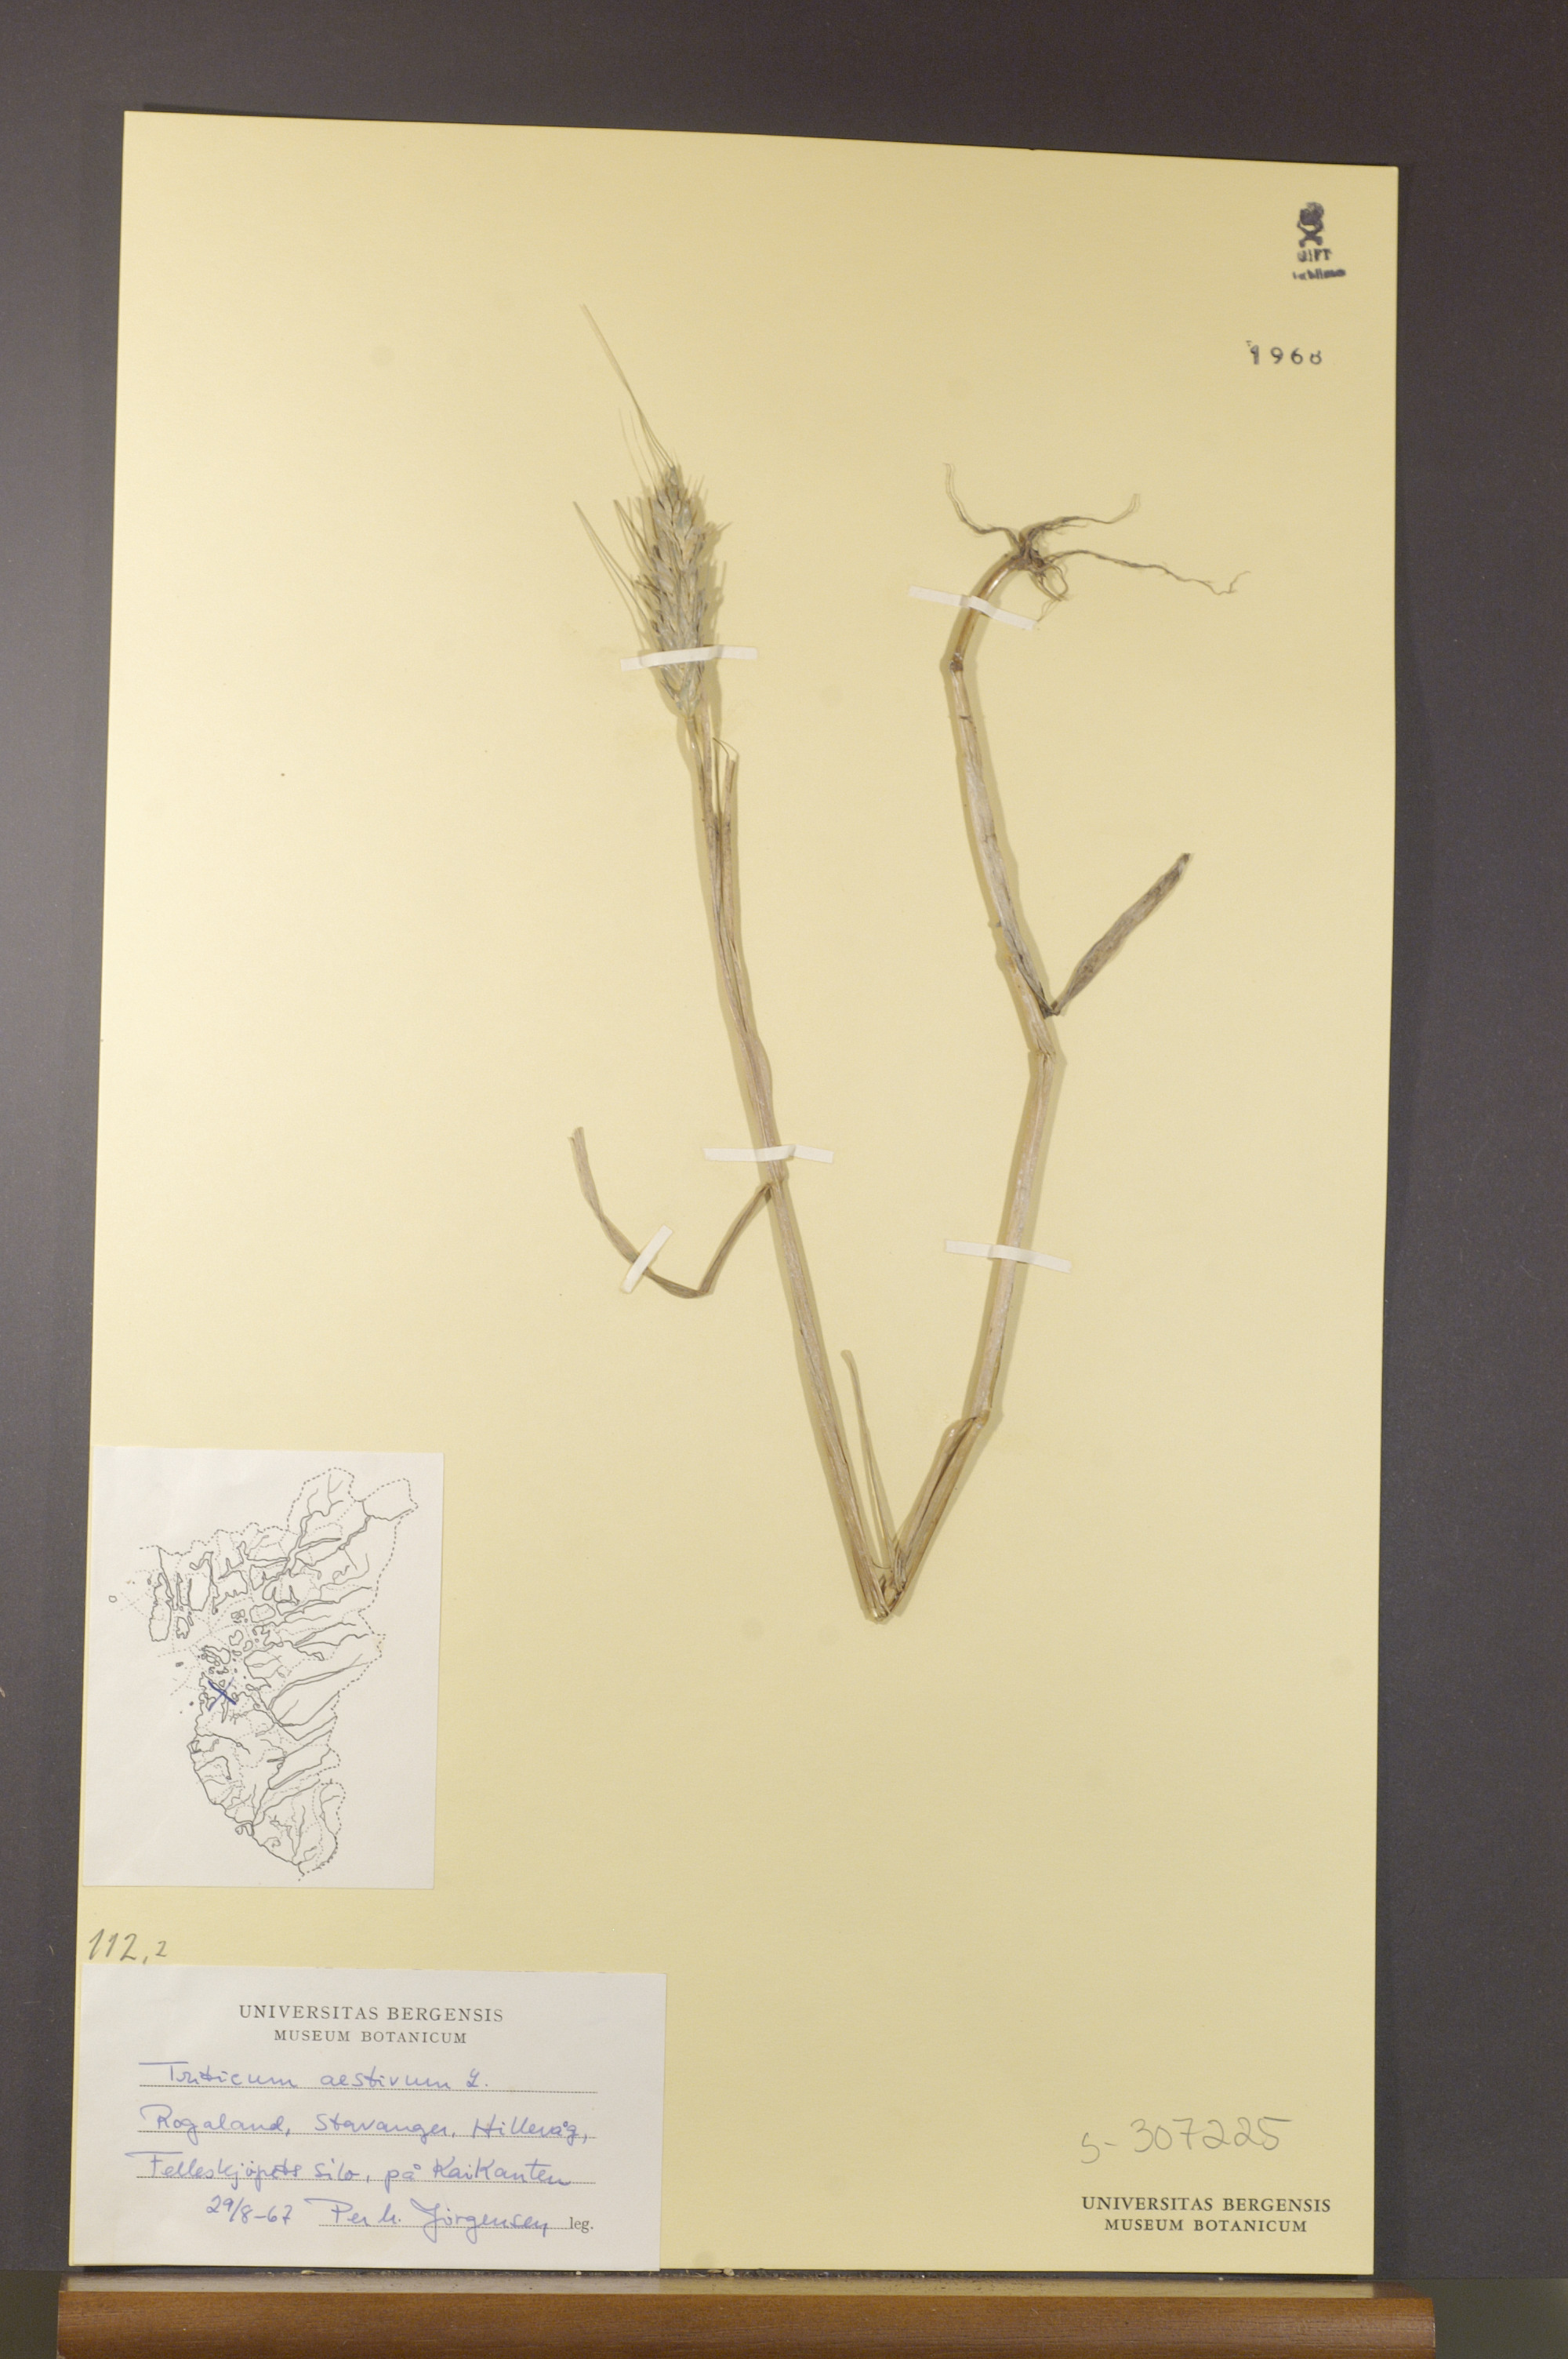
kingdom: Plantae
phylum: Tracheophyta
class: Liliopsida
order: Poales
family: Poaceae
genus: Triticum
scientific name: Triticum aestivum
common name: Common wheat
